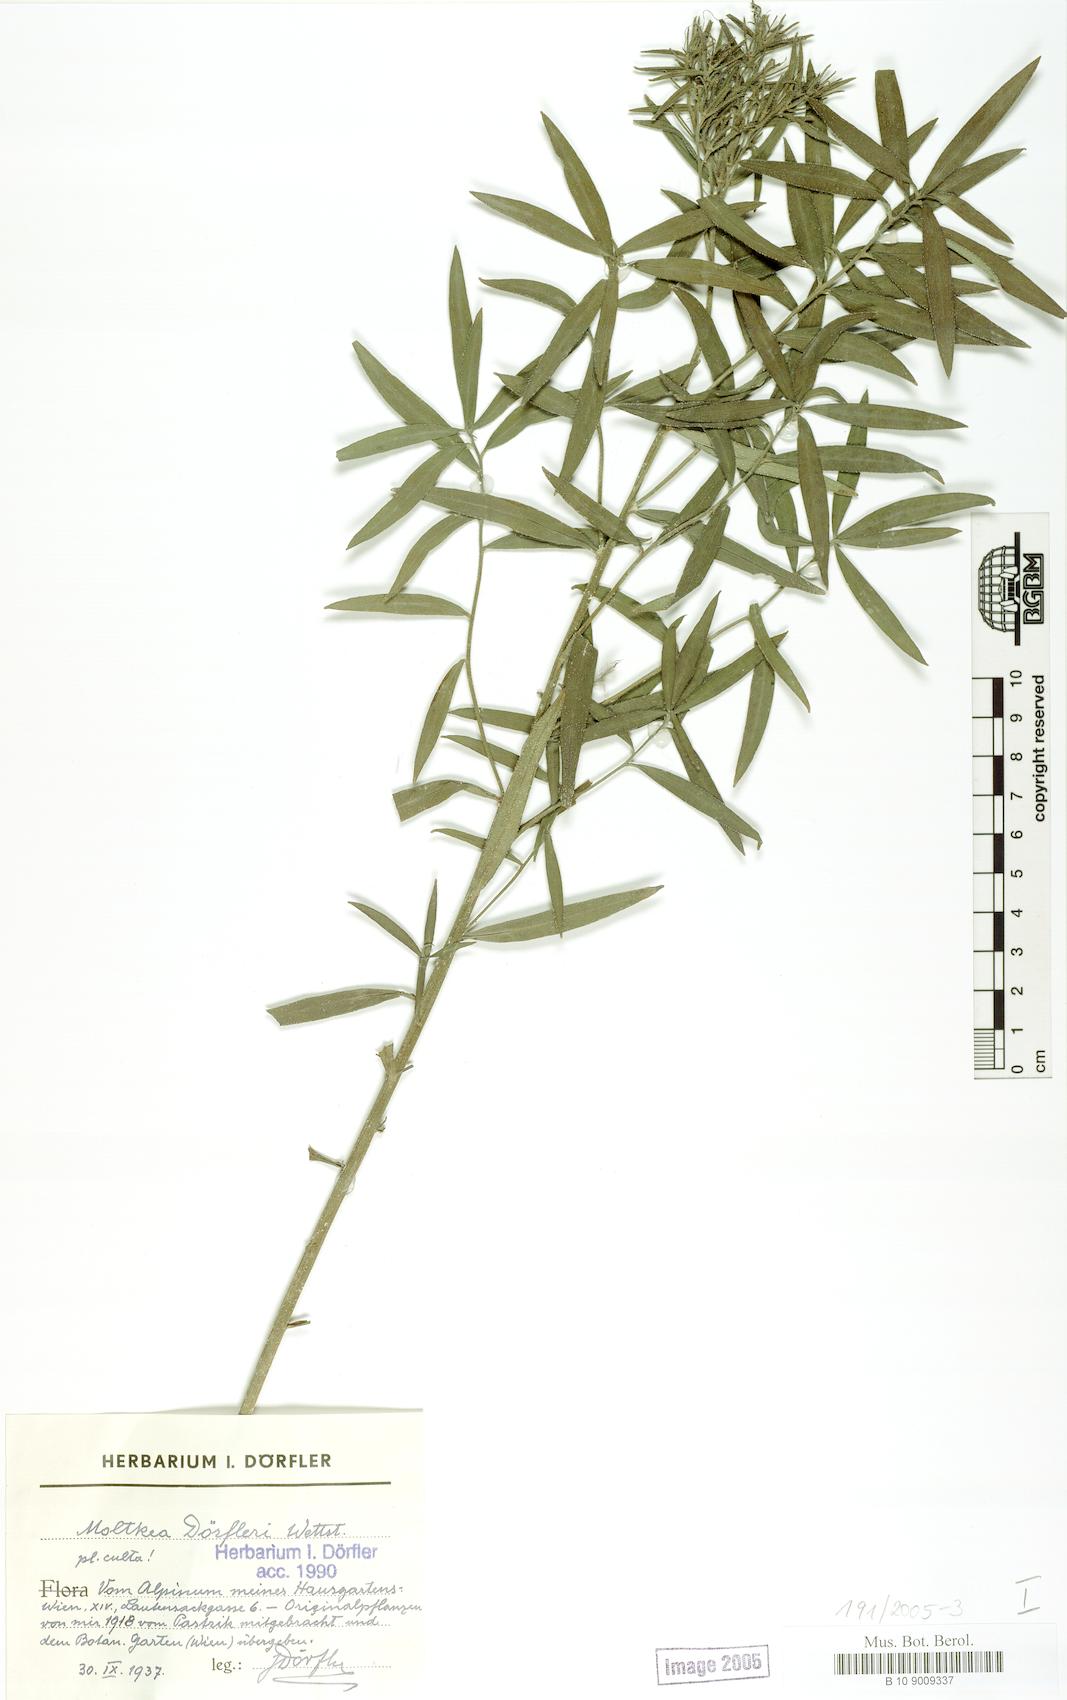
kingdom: Plantae
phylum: Tracheophyta
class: Magnoliopsida
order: Boraginales
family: Boraginaceae
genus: Paramoltkia
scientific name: Paramoltkia doerfleri
